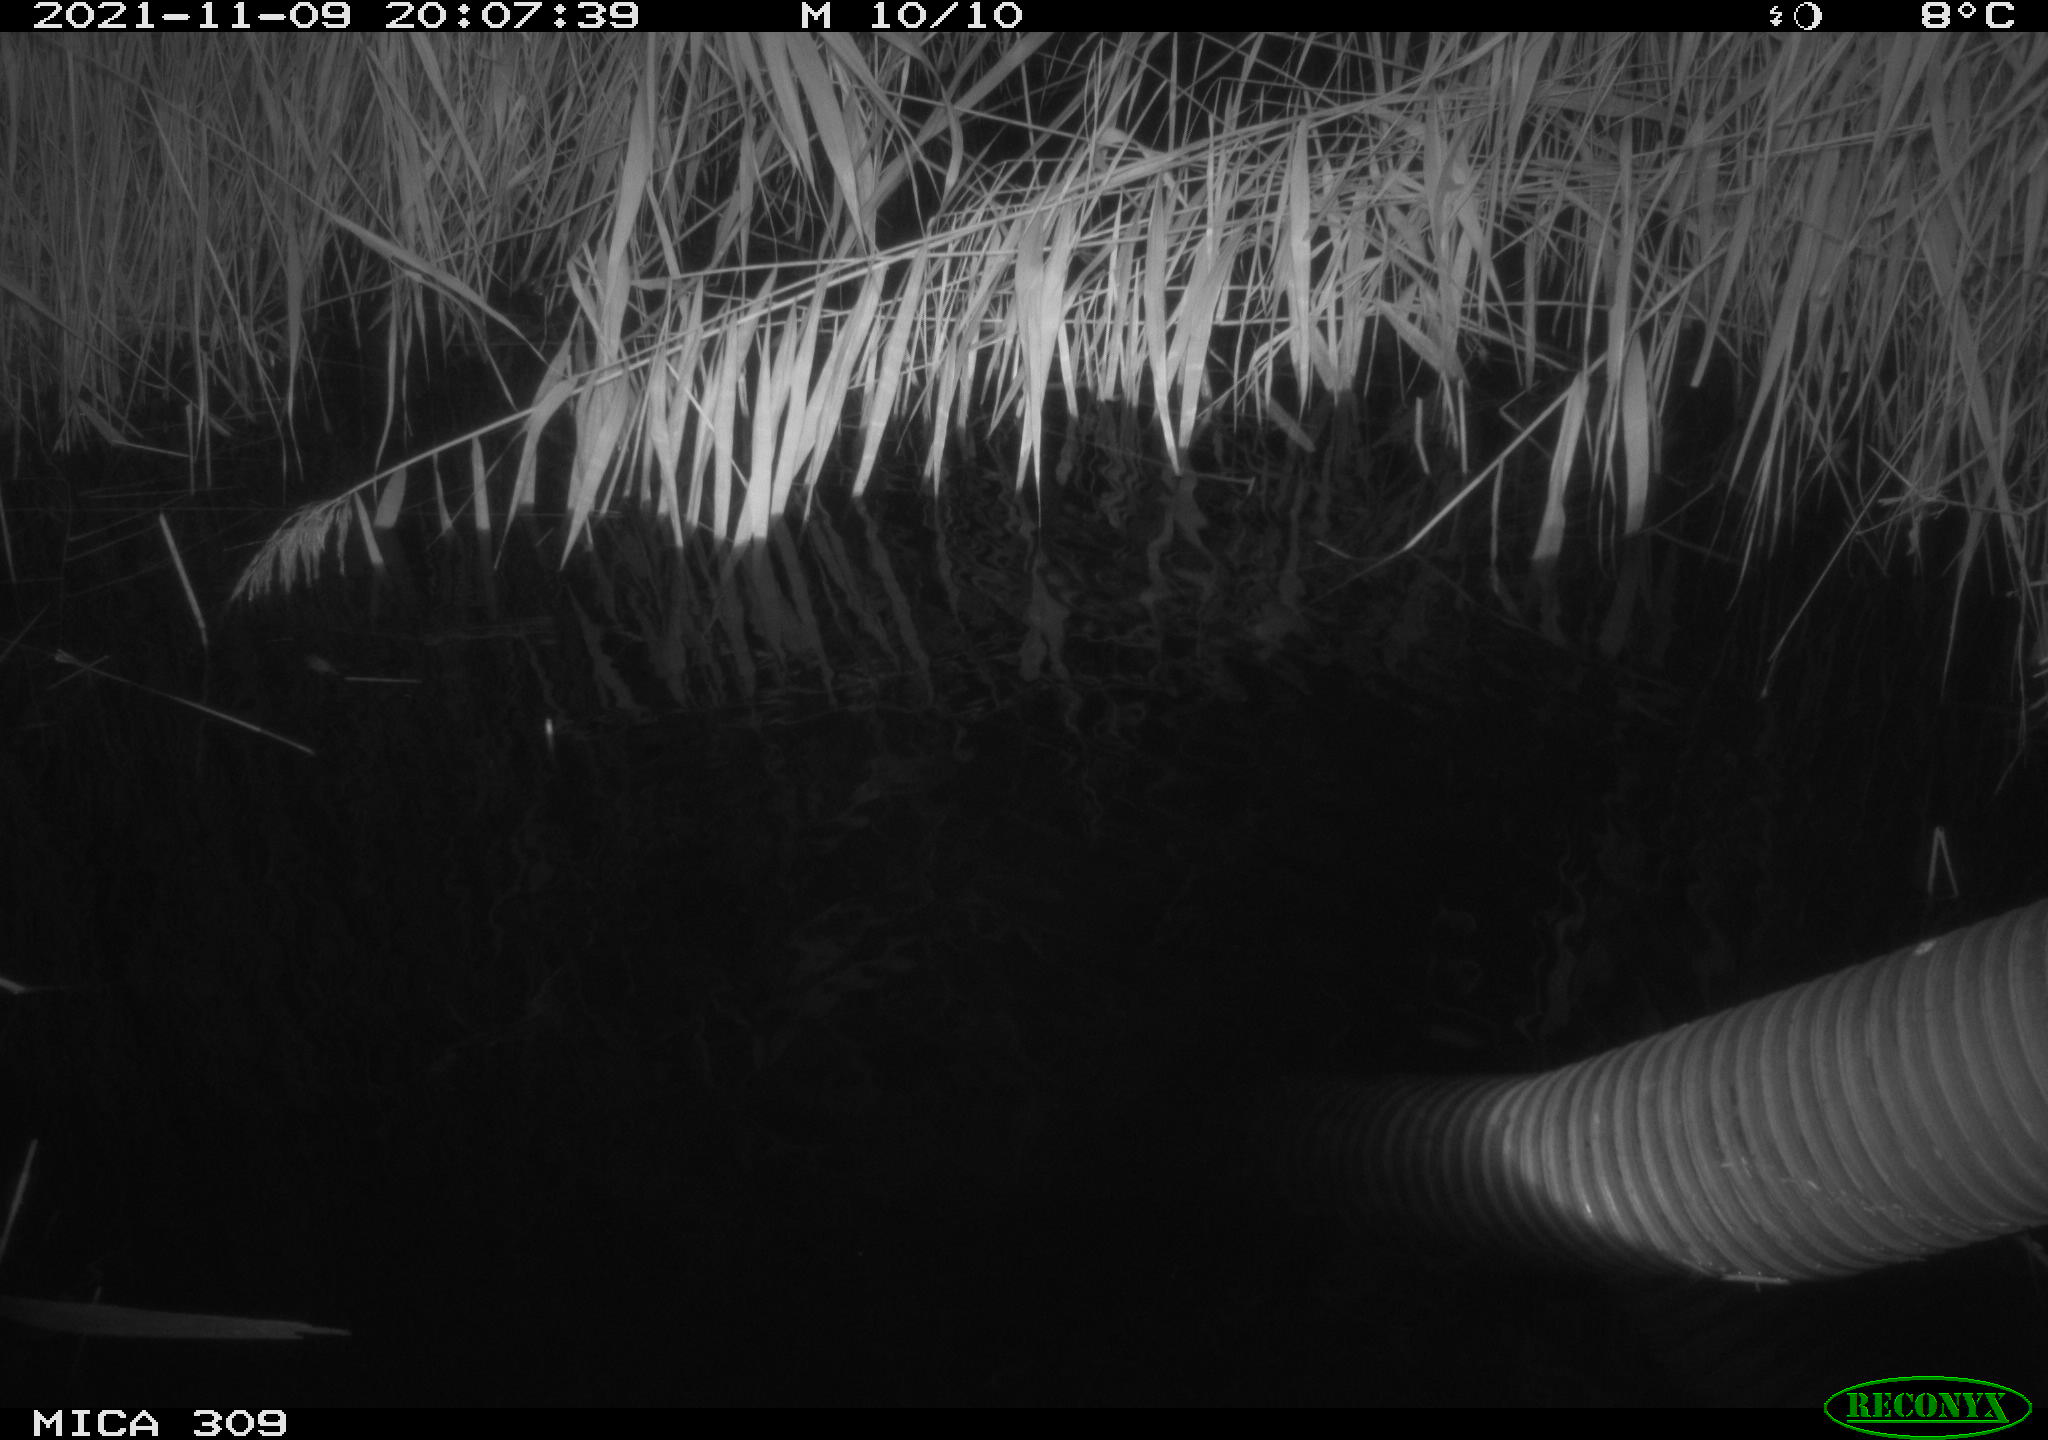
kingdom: Animalia
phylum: Chordata
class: Mammalia
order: Rodentia
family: Muridae
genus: Rattus
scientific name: Rattus norvegicus
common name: Brown rat
